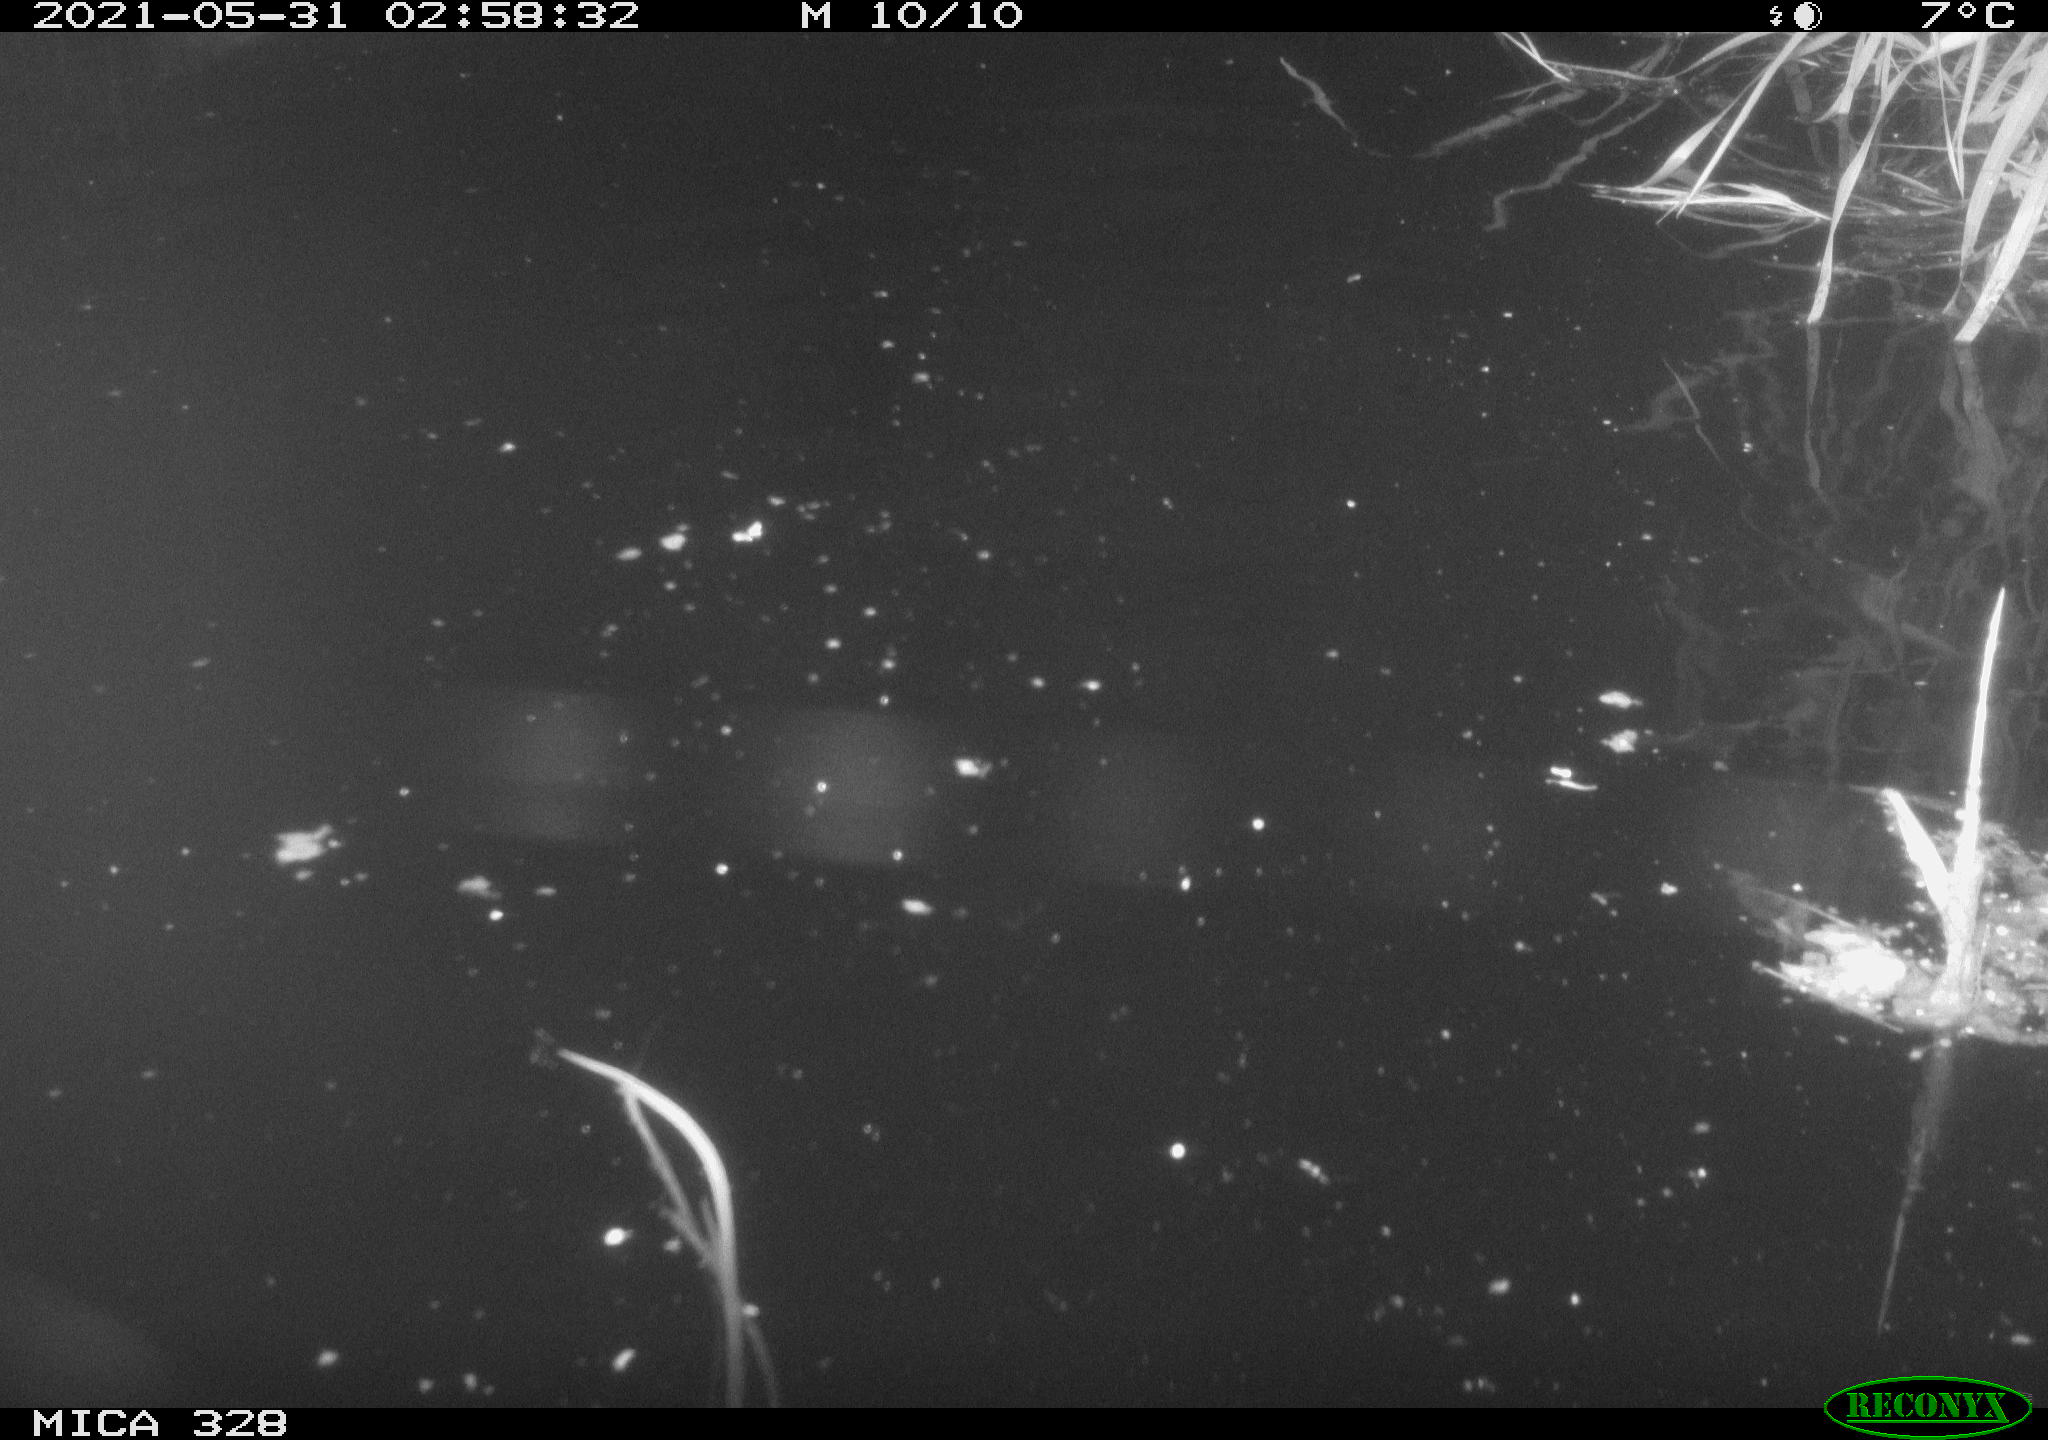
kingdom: Animalia
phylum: Chordata
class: Mammalia
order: Rodentia
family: Cricetidae
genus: Ondatra
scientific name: Ondatra zibethicus
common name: Muskrat
